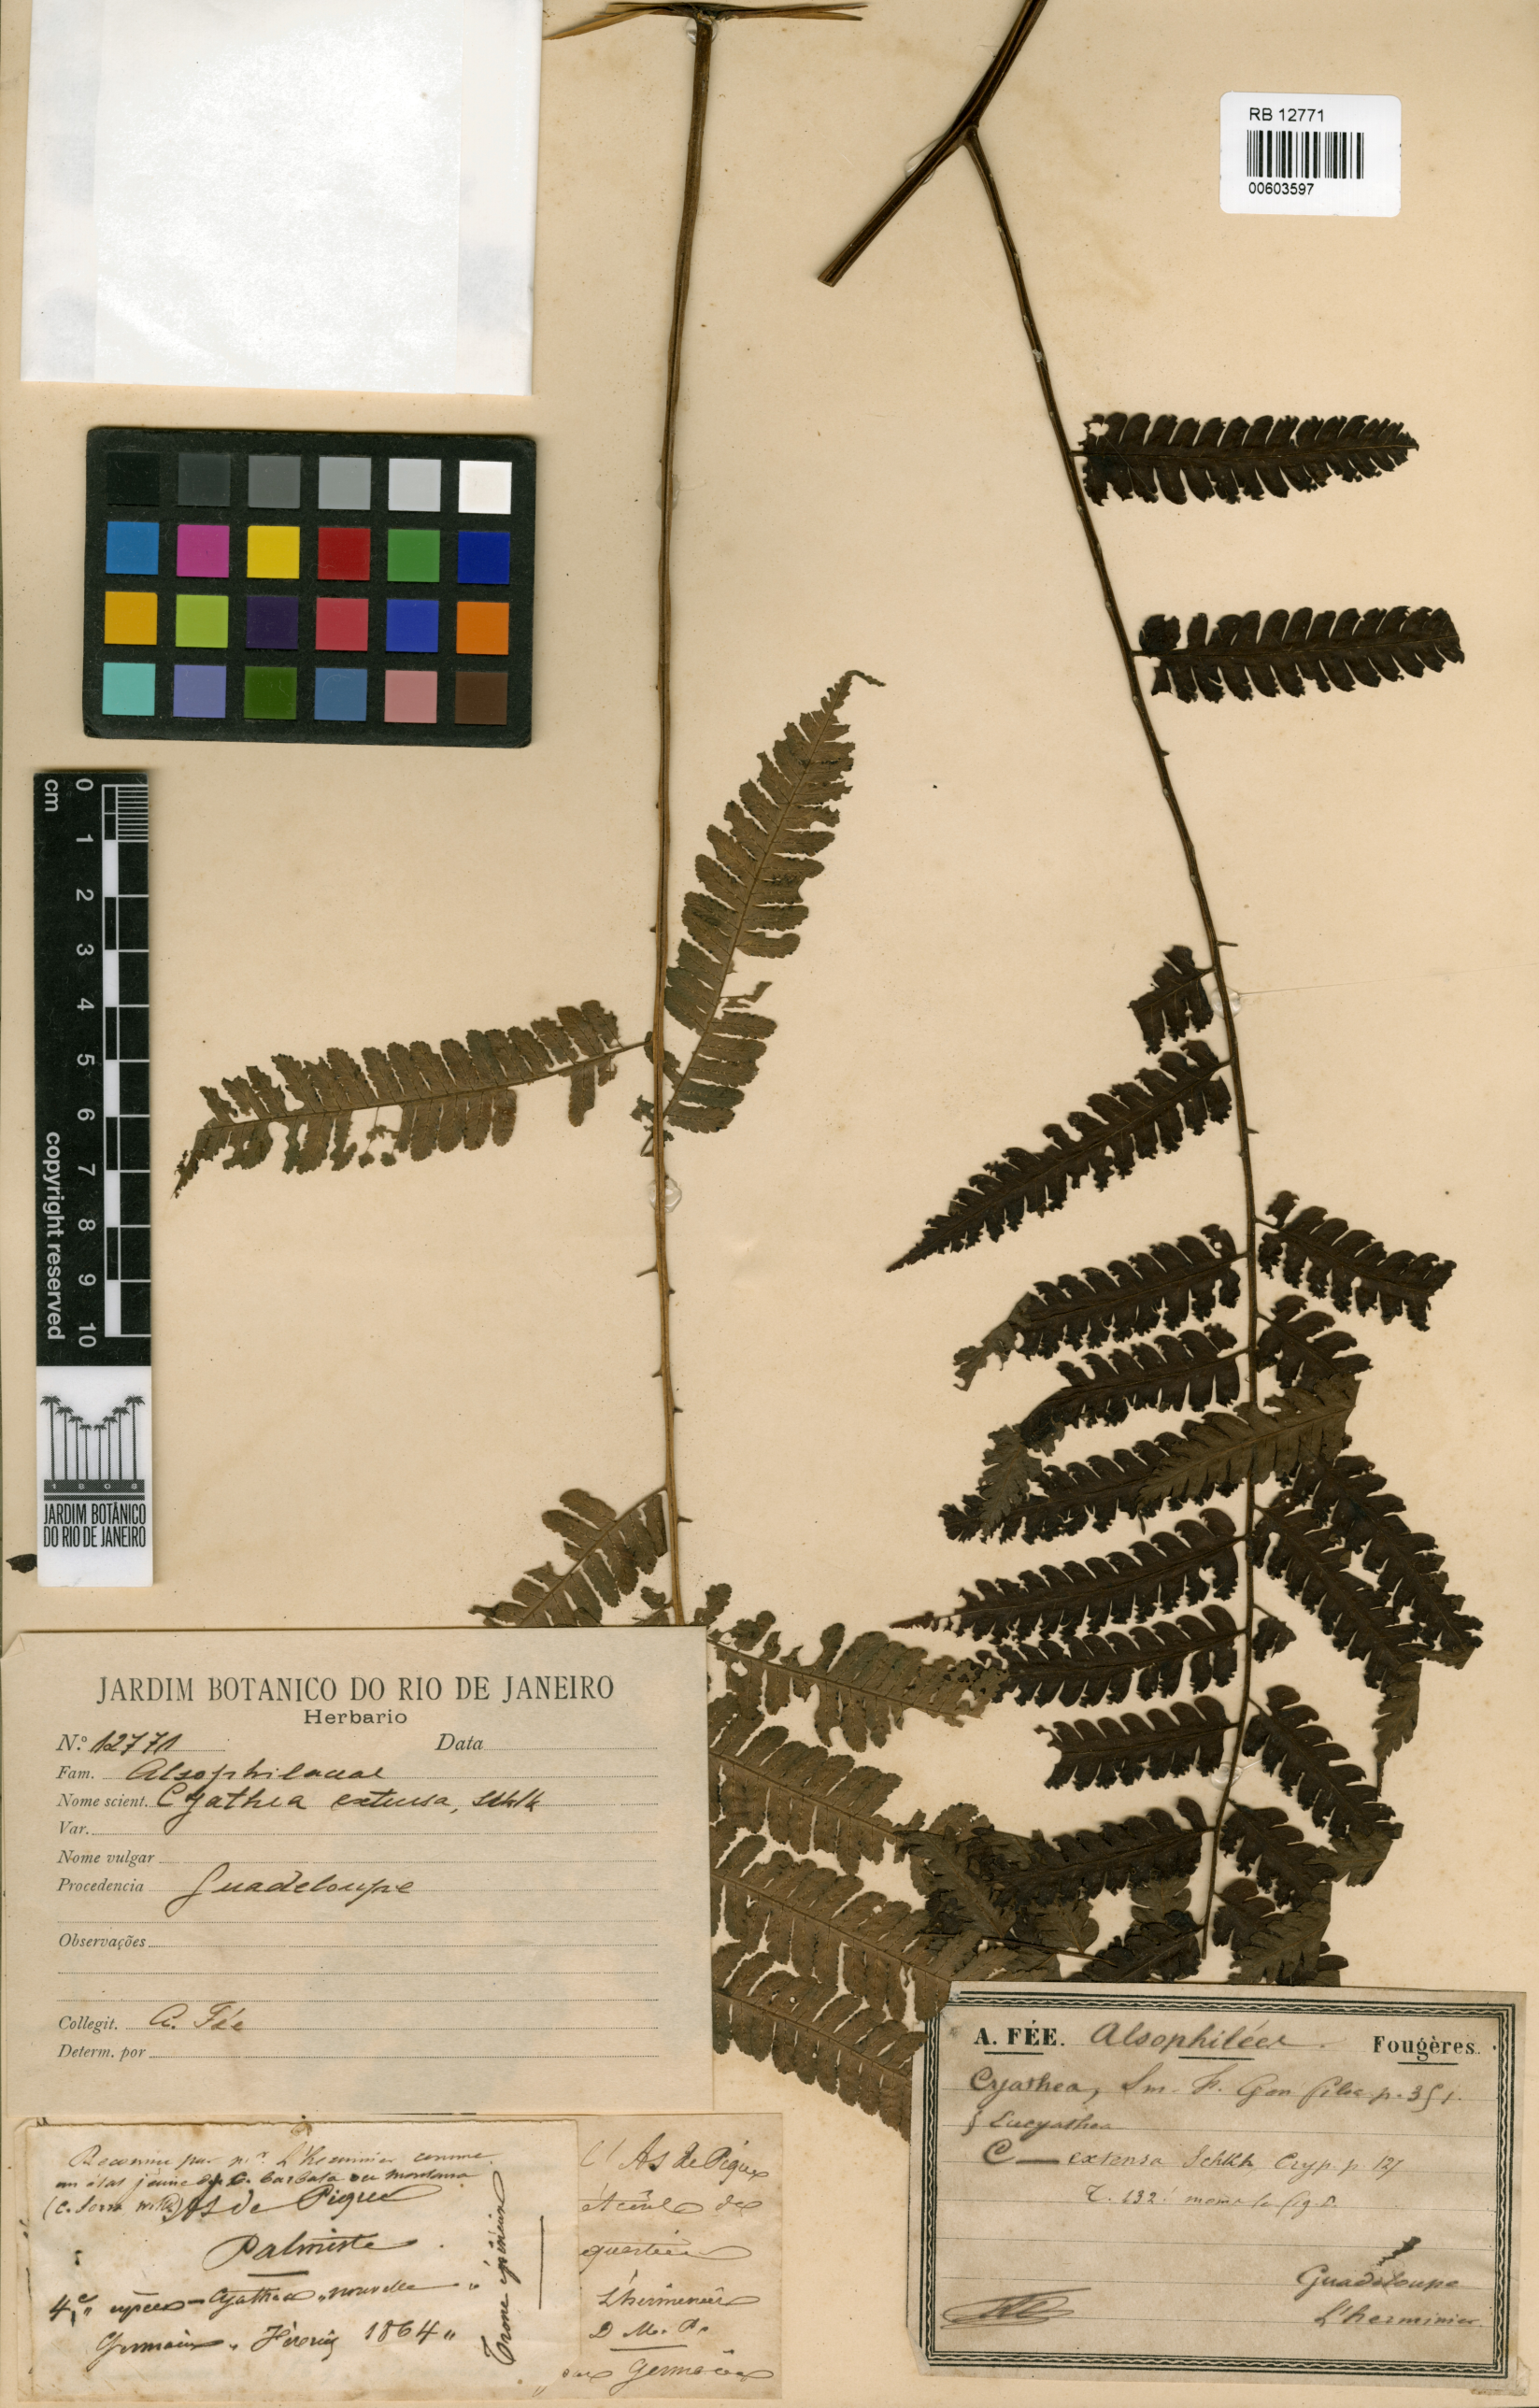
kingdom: Plantae
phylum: Tracheophyta
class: Polypodiopsida
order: Cyatheales
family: Cyatheaceae
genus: Sphaeropteris
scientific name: Sphaeropteris lunulata
